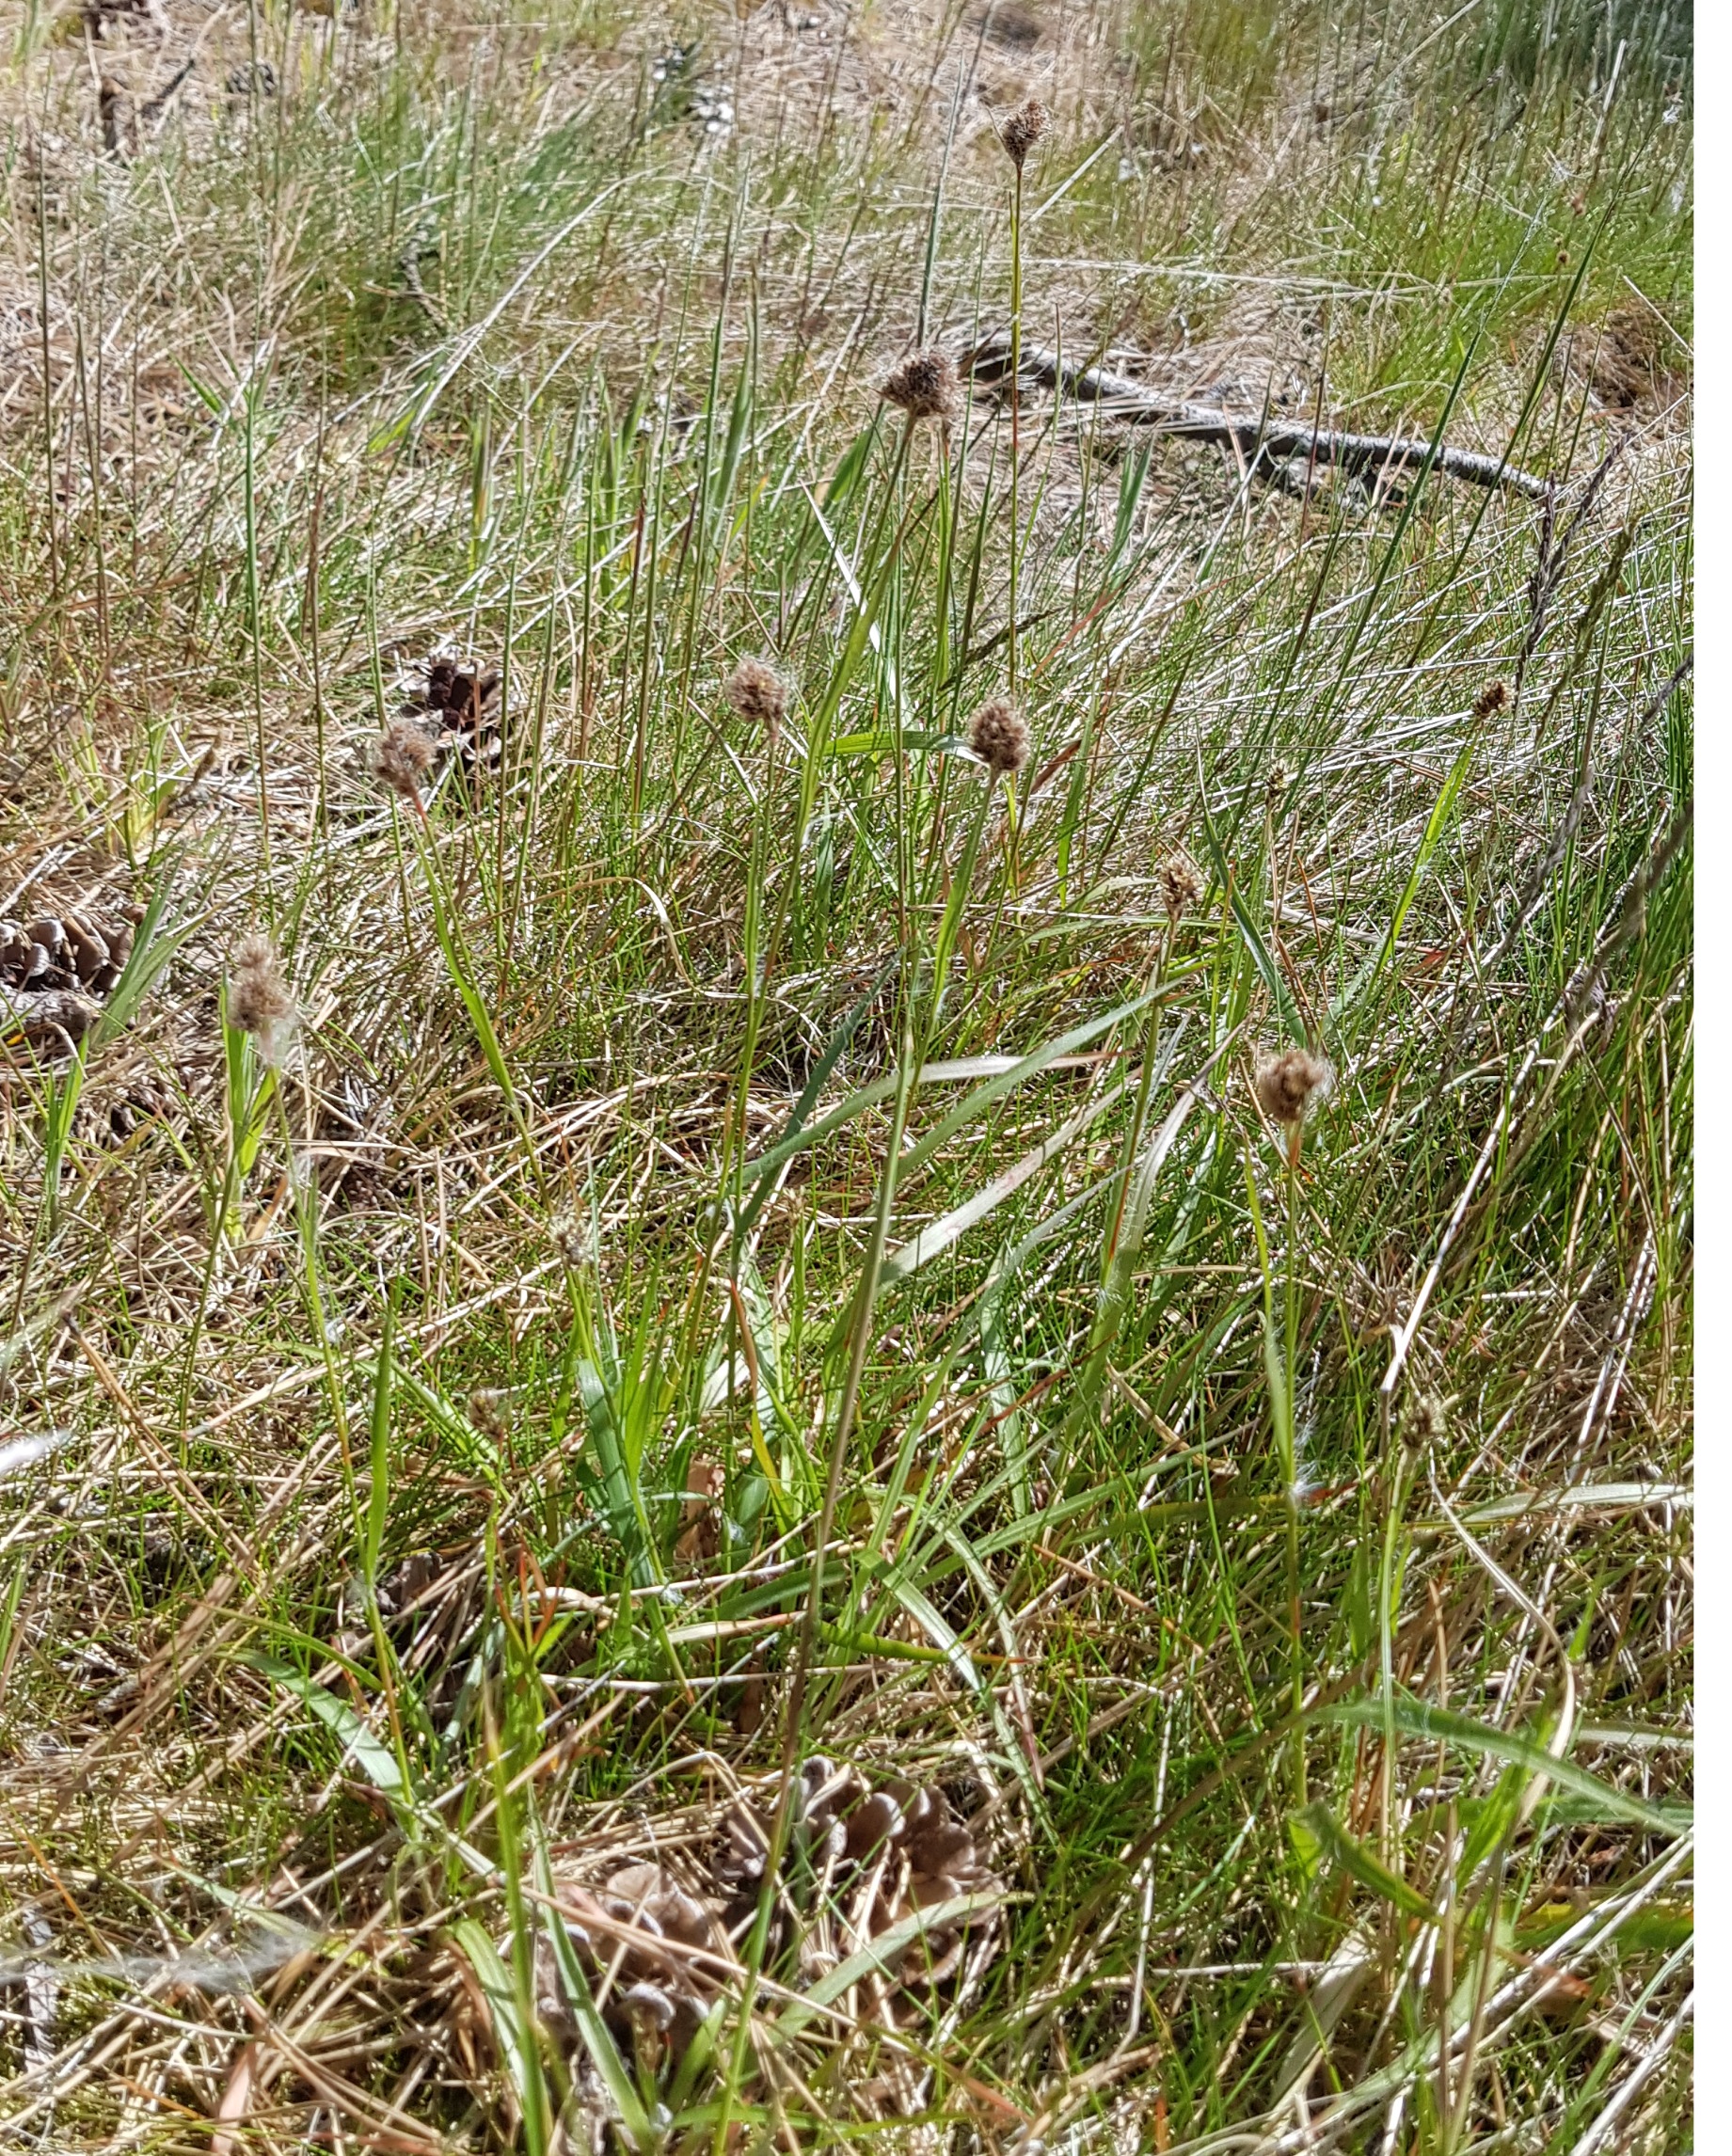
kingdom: Plantae
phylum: Tracheophyta
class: Liliopsida
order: Poales
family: Juncaceae
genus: Luzula
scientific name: Luzula congesta
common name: Hoved-frytle
